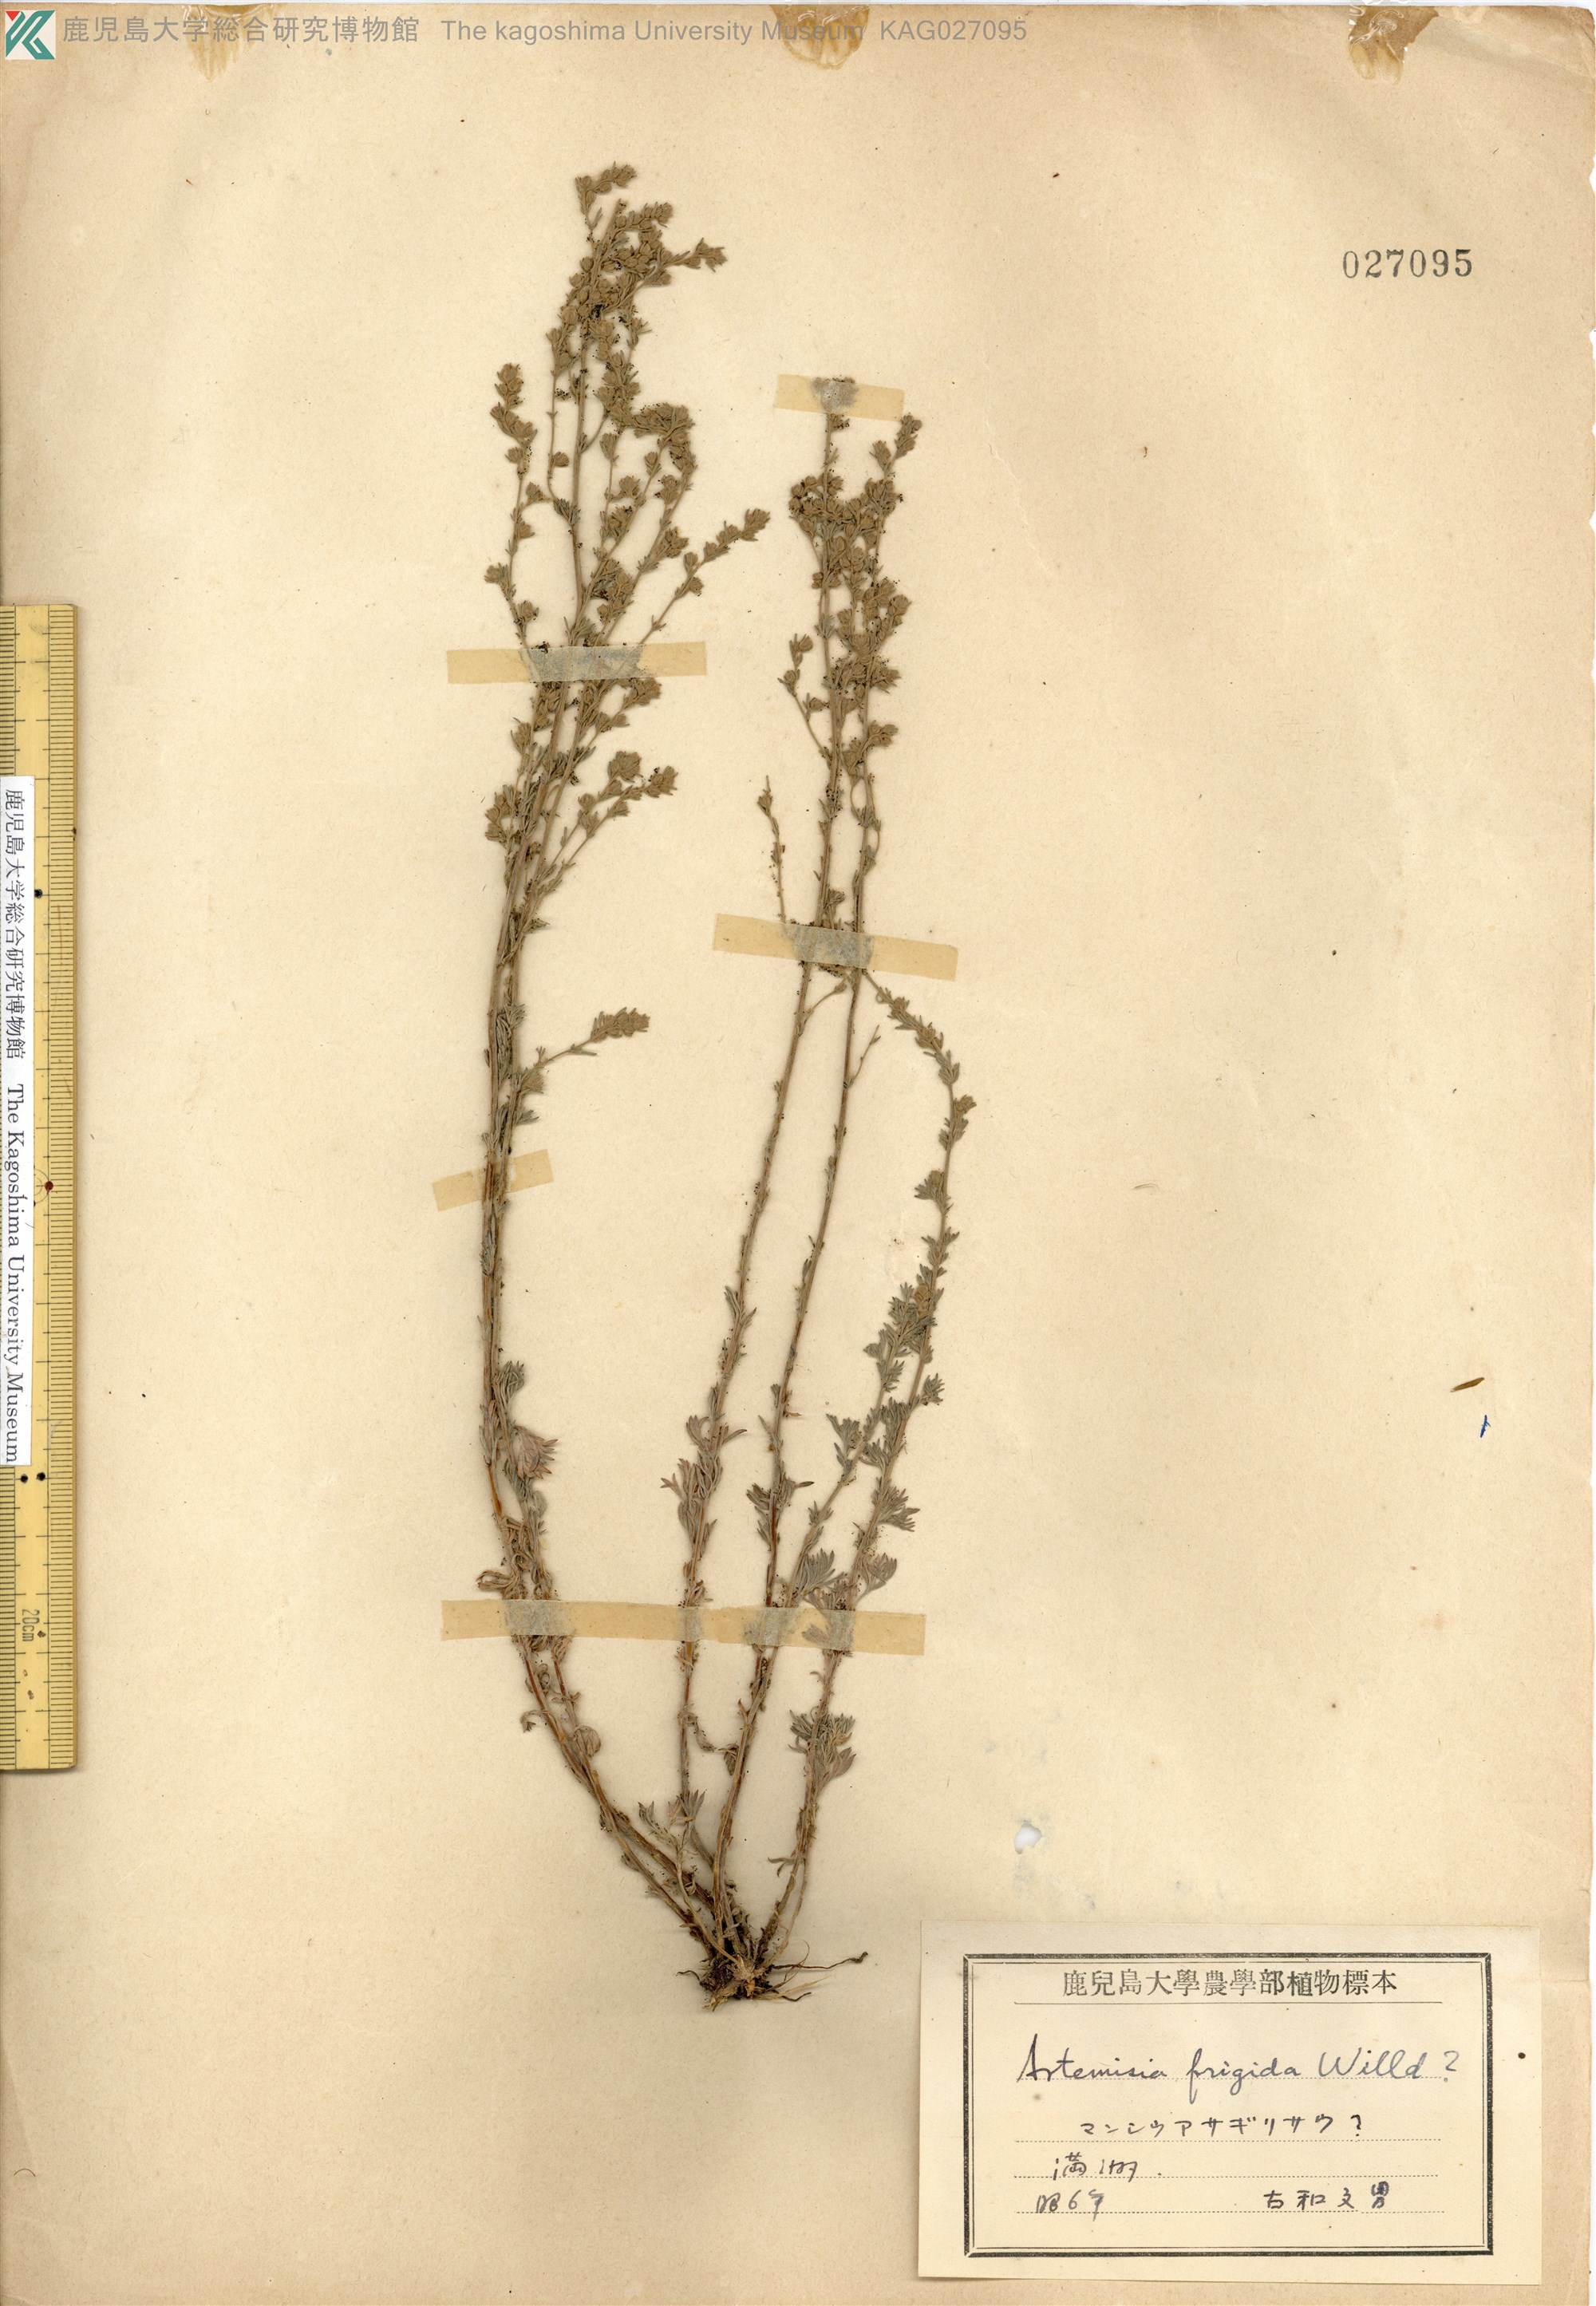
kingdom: Plantae
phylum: Tracheophyta
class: Magnoliopsida
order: Asterales
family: Asteraceae
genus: Artemisia
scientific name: Artemisia frigida
